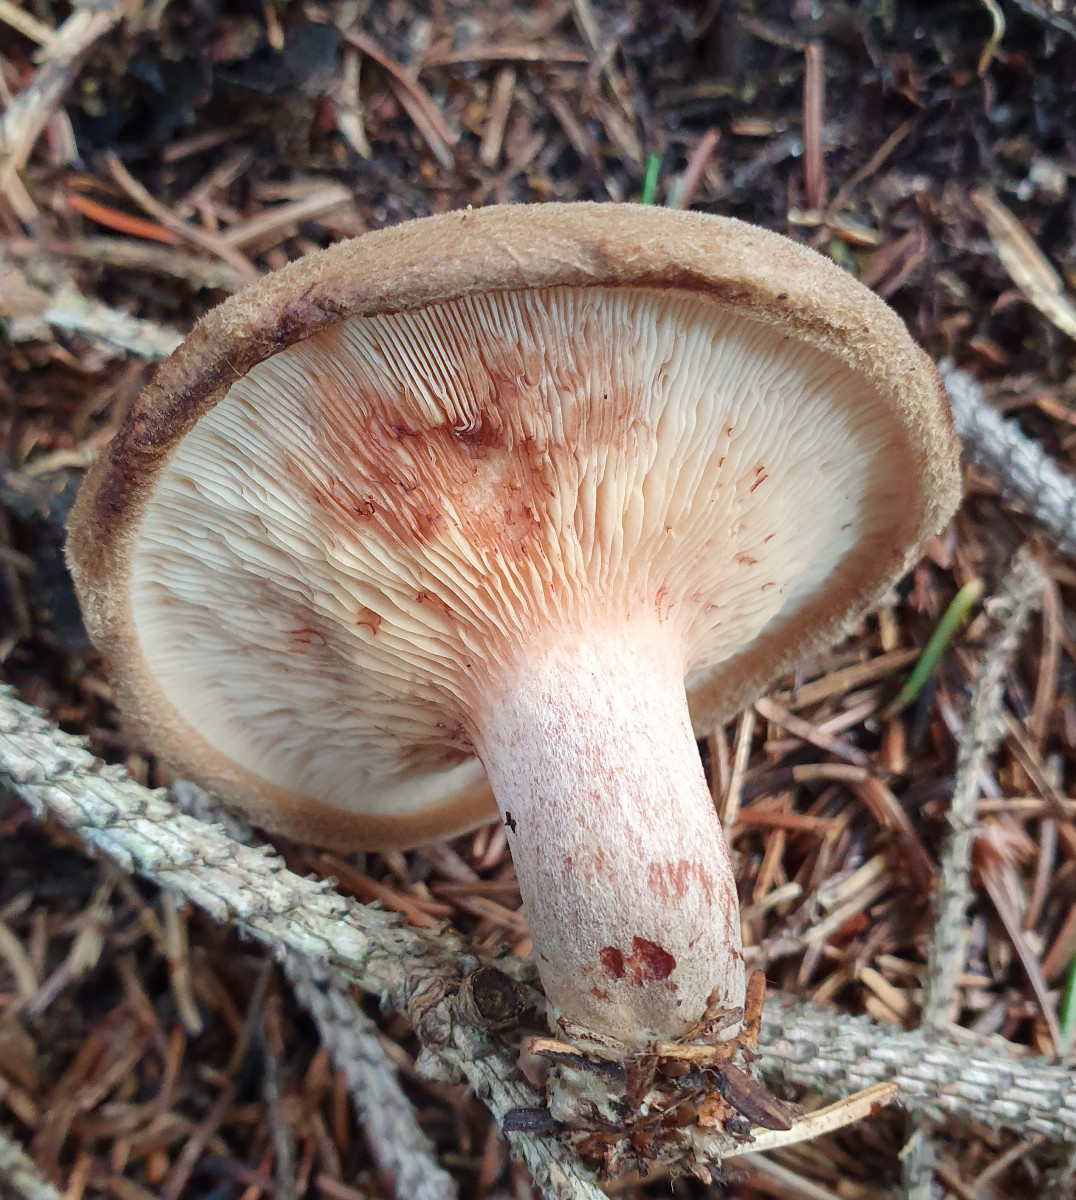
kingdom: Fungi
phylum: Basidiomycota
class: Agaricomycetes
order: Boletales
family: Paxillaceae
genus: Paxillus
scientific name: Paxillus involutus
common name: almindelig netbladhat
